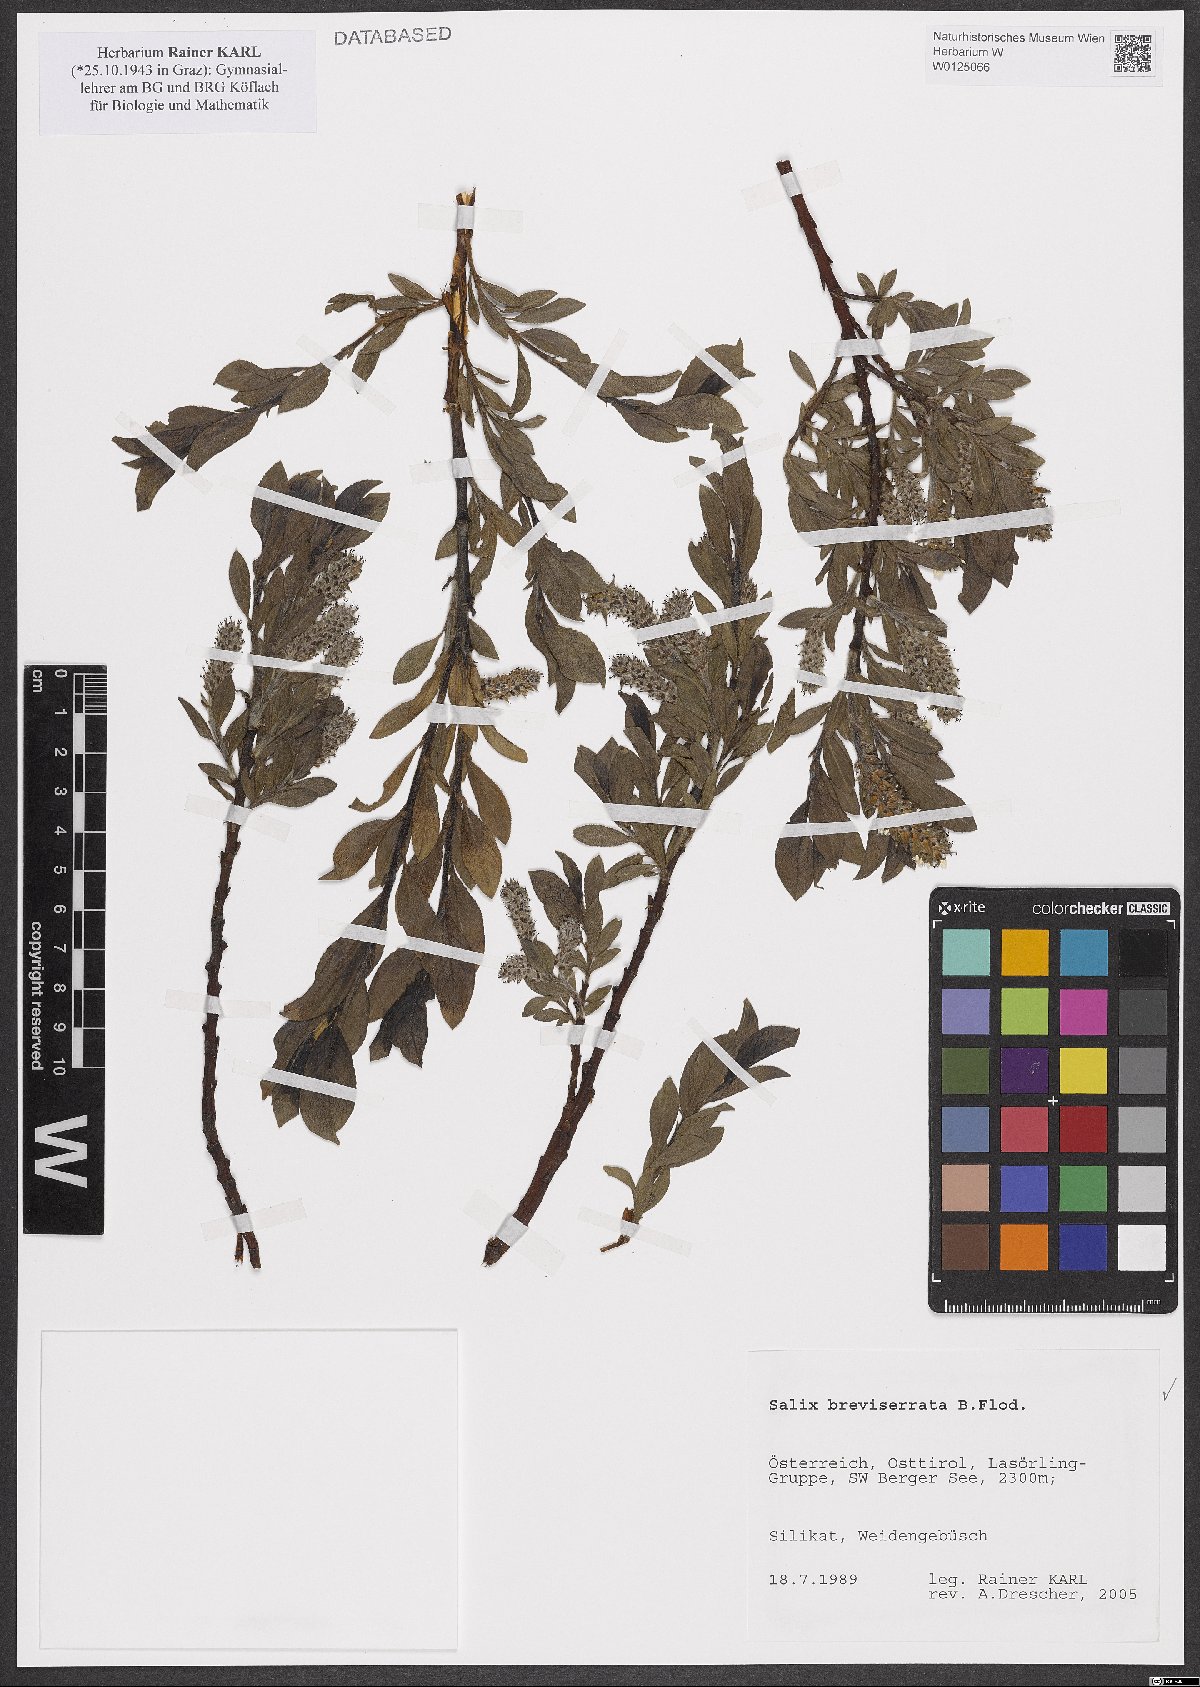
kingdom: Plantae
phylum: Tracheophyta
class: Magnoliopsida
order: Malpighiales
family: Salicaceae
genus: Salix
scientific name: Salix breviserrata
